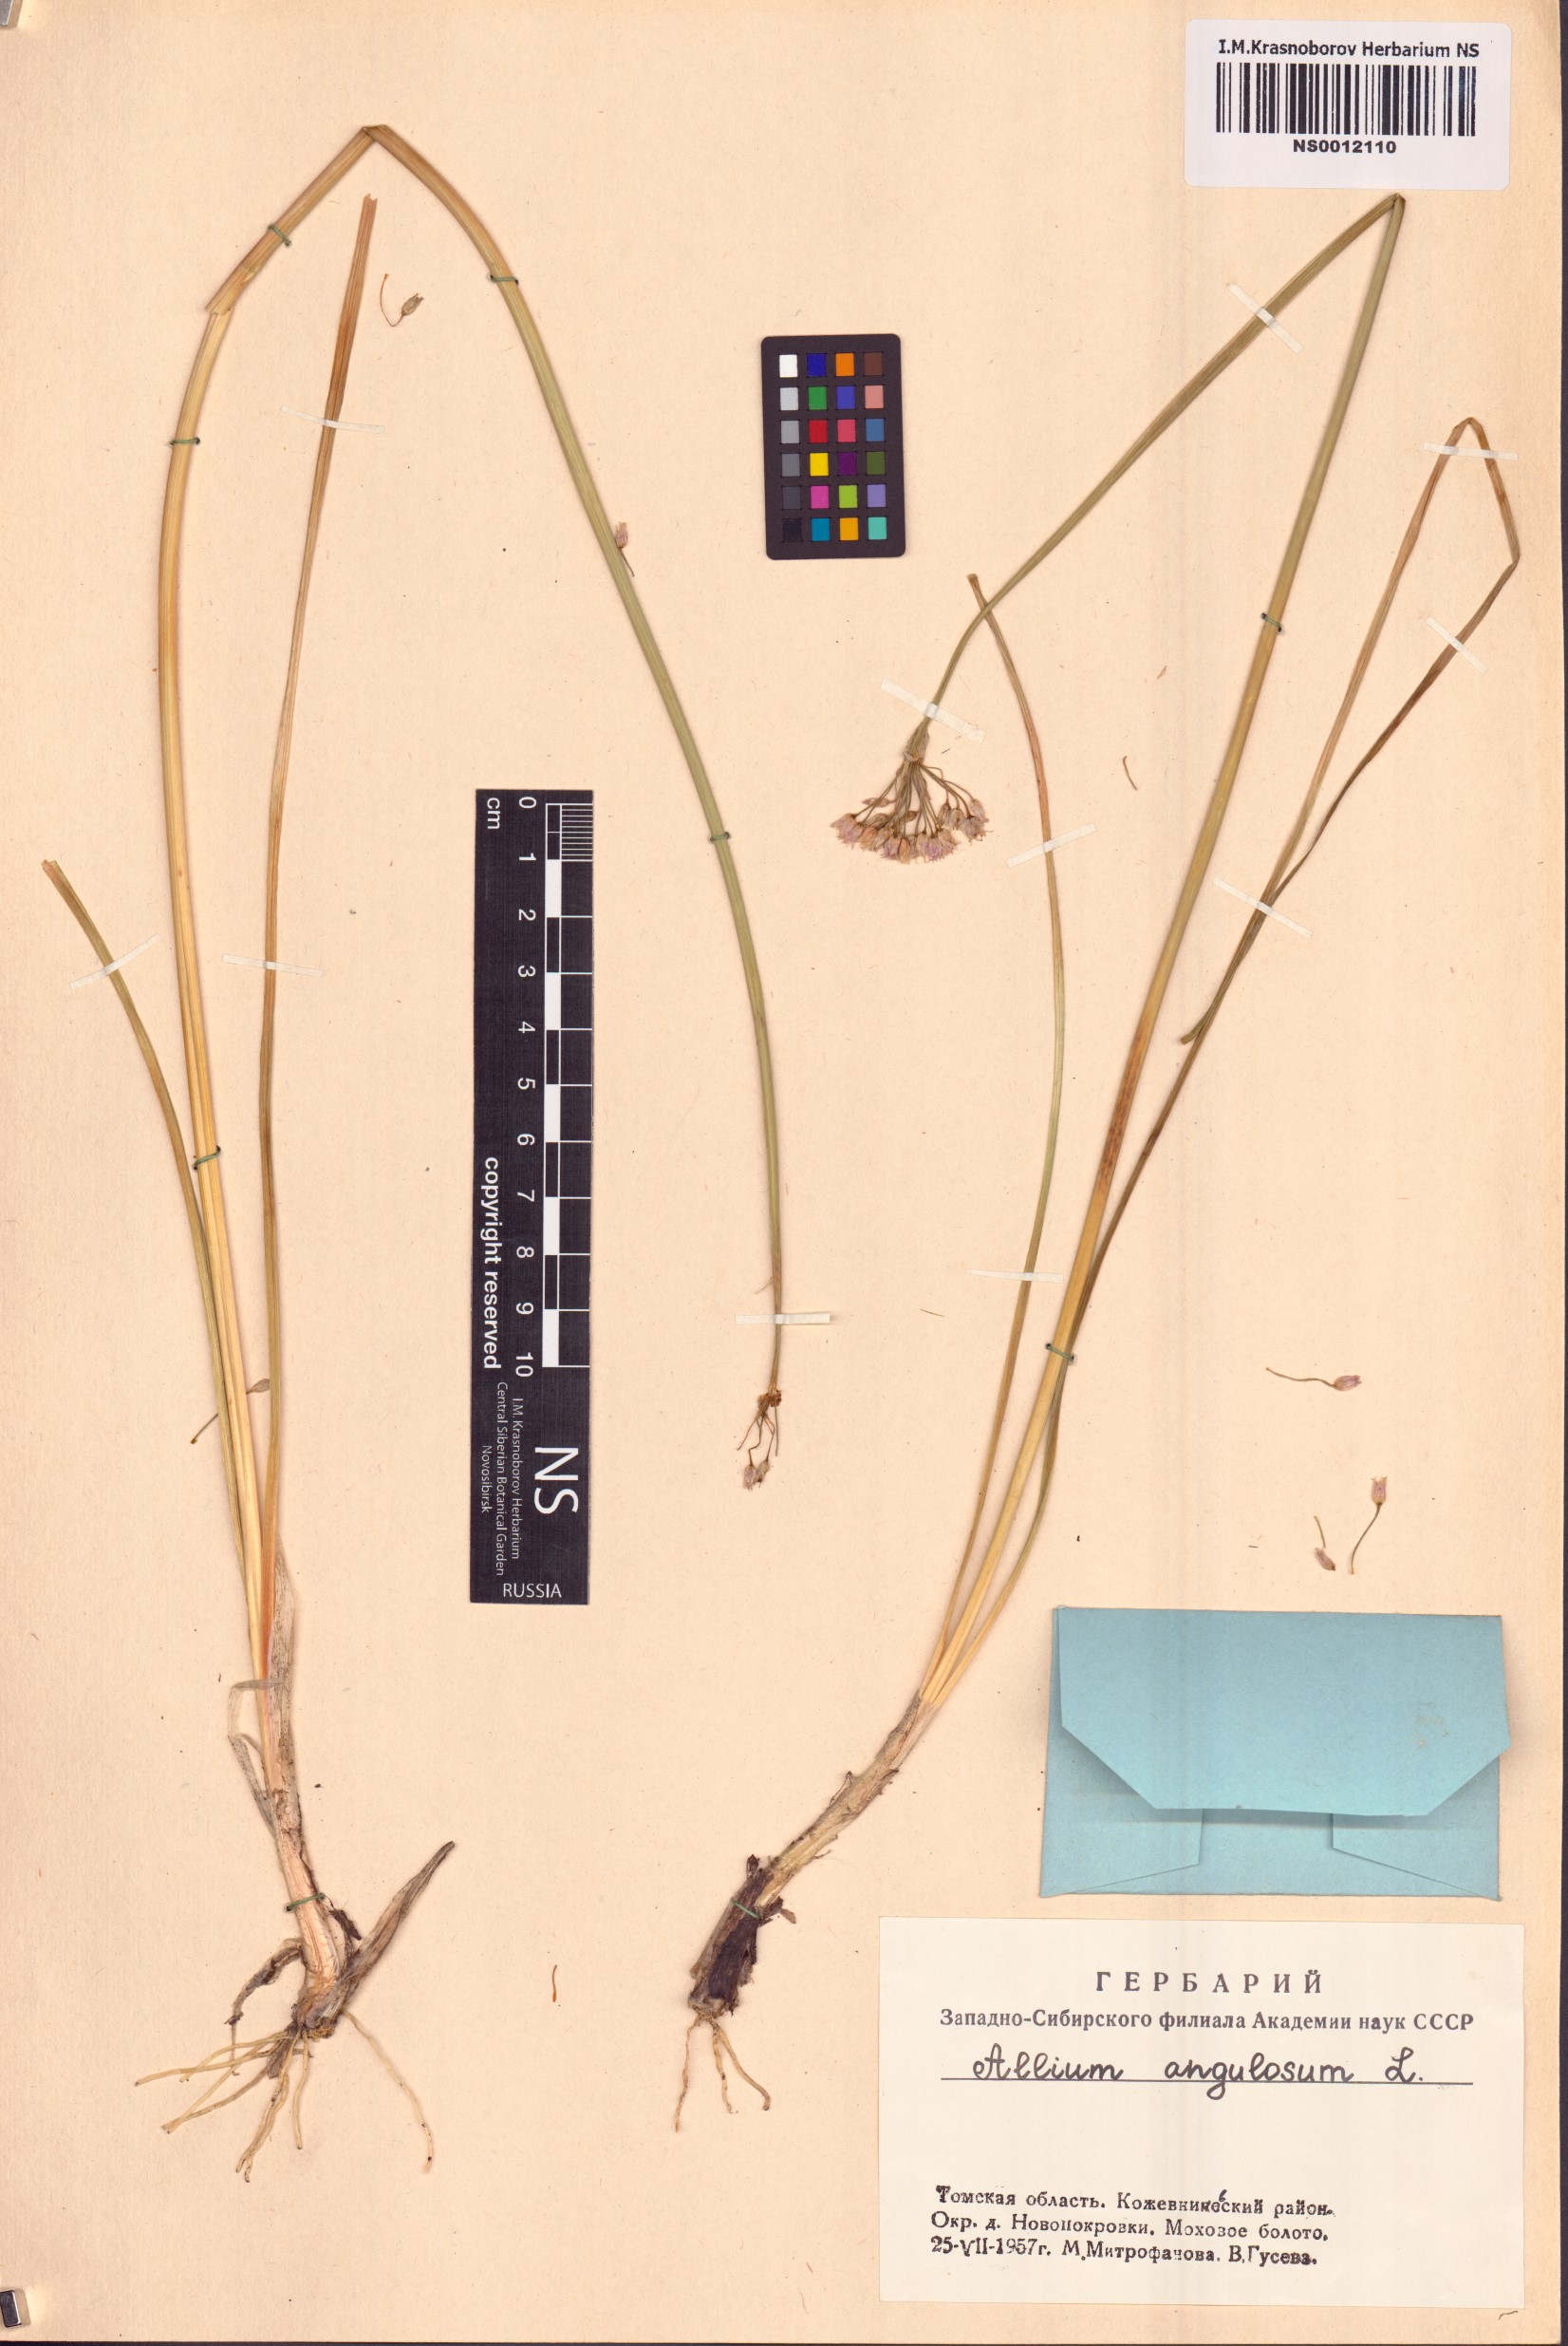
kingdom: Plantae
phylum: Tracheophyta
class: Liliopsida
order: Asparagales
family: Amaryllidaceae
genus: Allium
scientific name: Allium angulosum
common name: Mouse garlic
